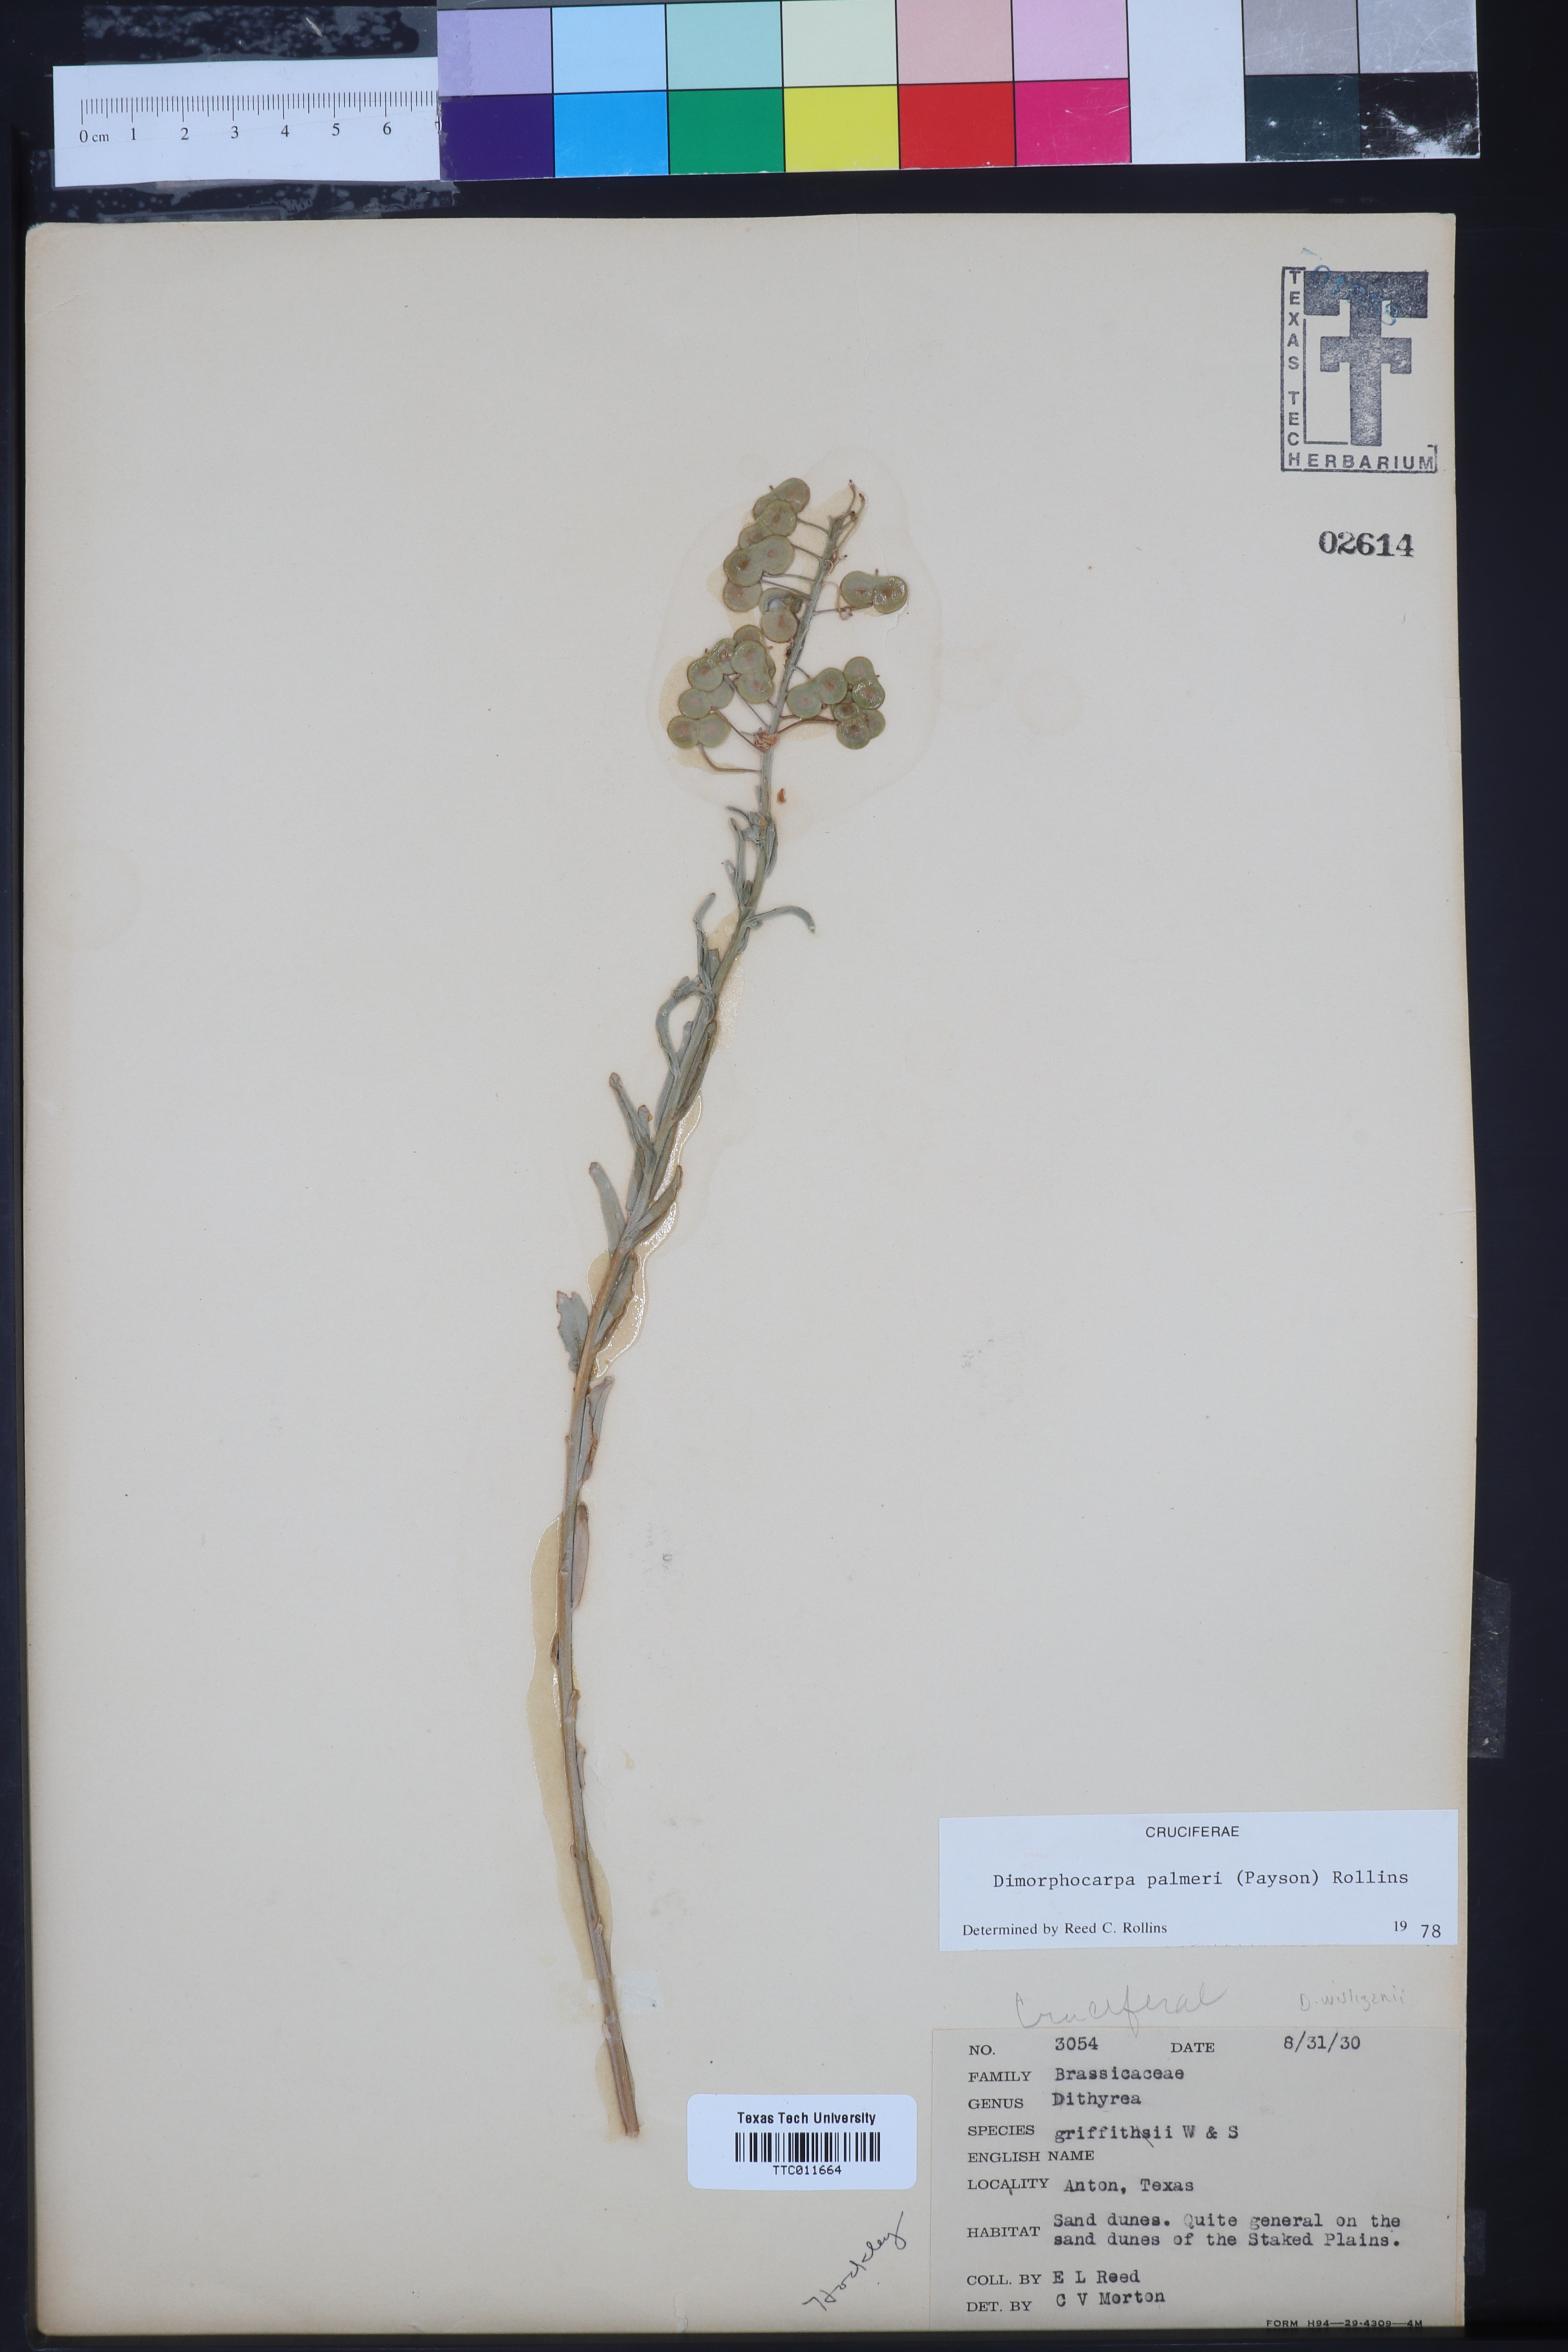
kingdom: Plantae
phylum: Tracheophyta
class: Magnoliopsida
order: Brassicales
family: Brassicaceae
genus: Dimorphocarpa
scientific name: Dimorphocarpa candicans
